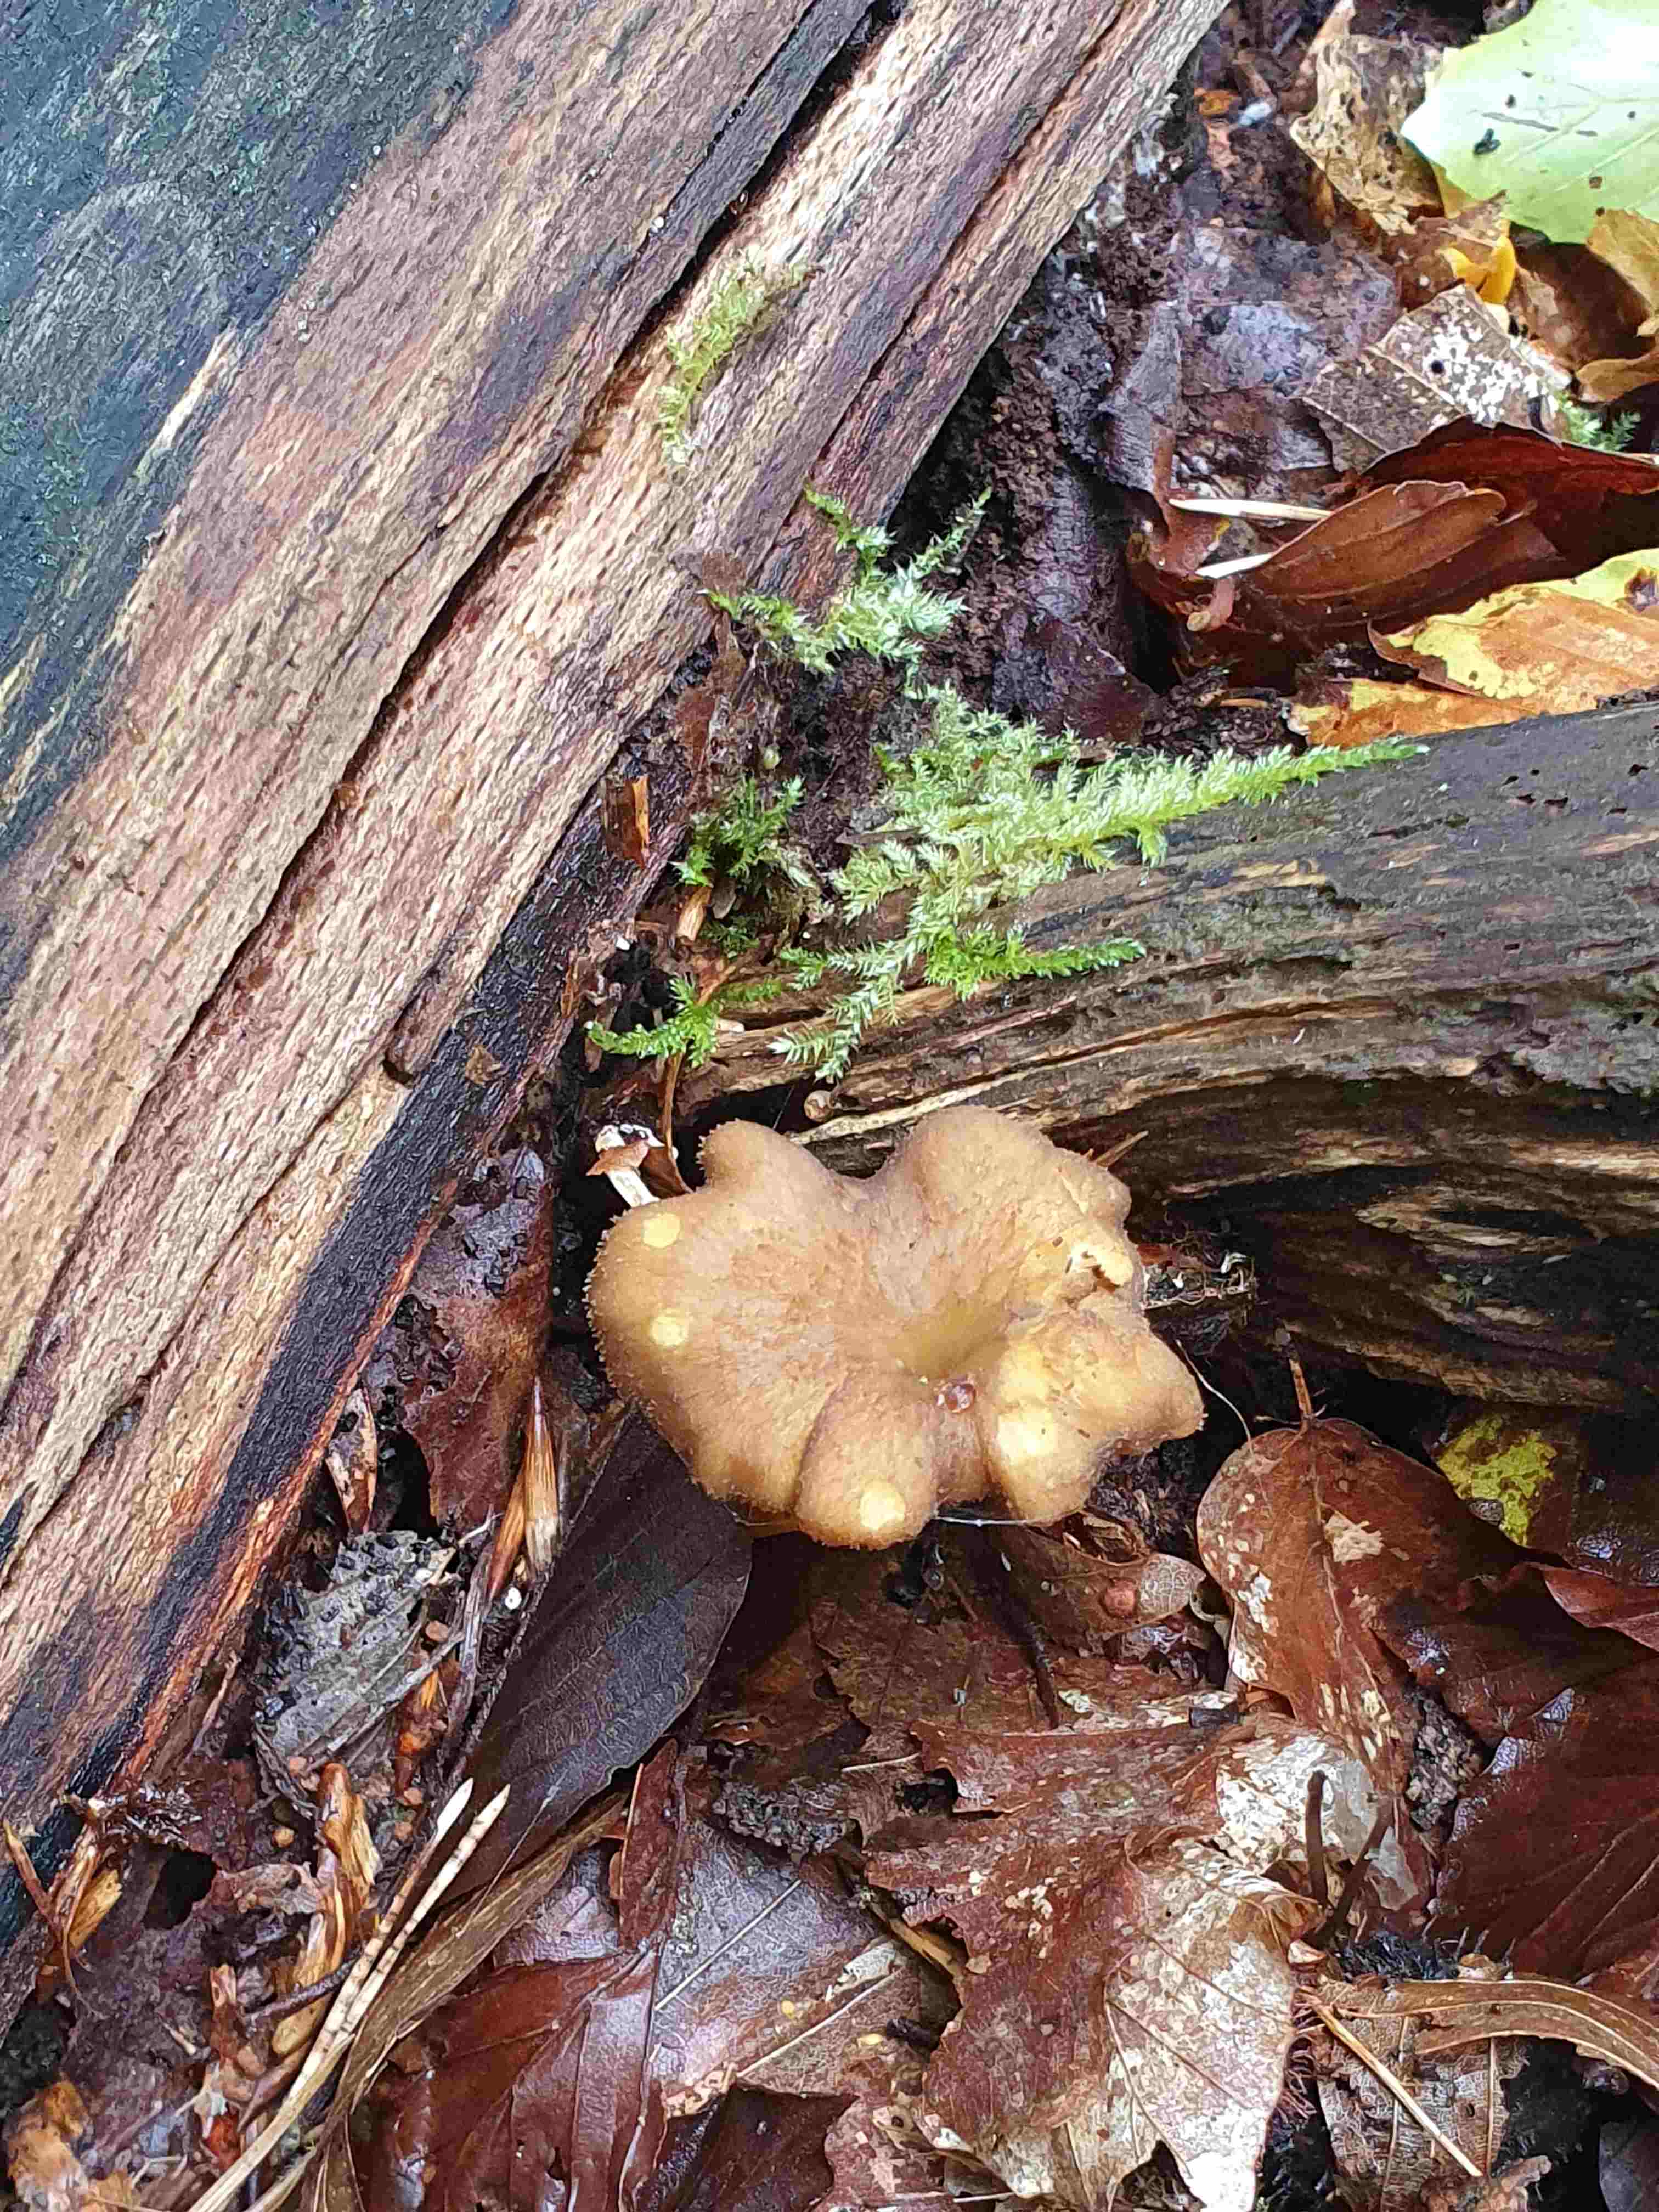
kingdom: Fungi
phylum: Basidiomycota
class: Agaricomycetes
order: Cantharellales
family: Hydnaceae
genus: Craterellus
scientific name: Craterellus tubaeformis
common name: tragt-kantarel
